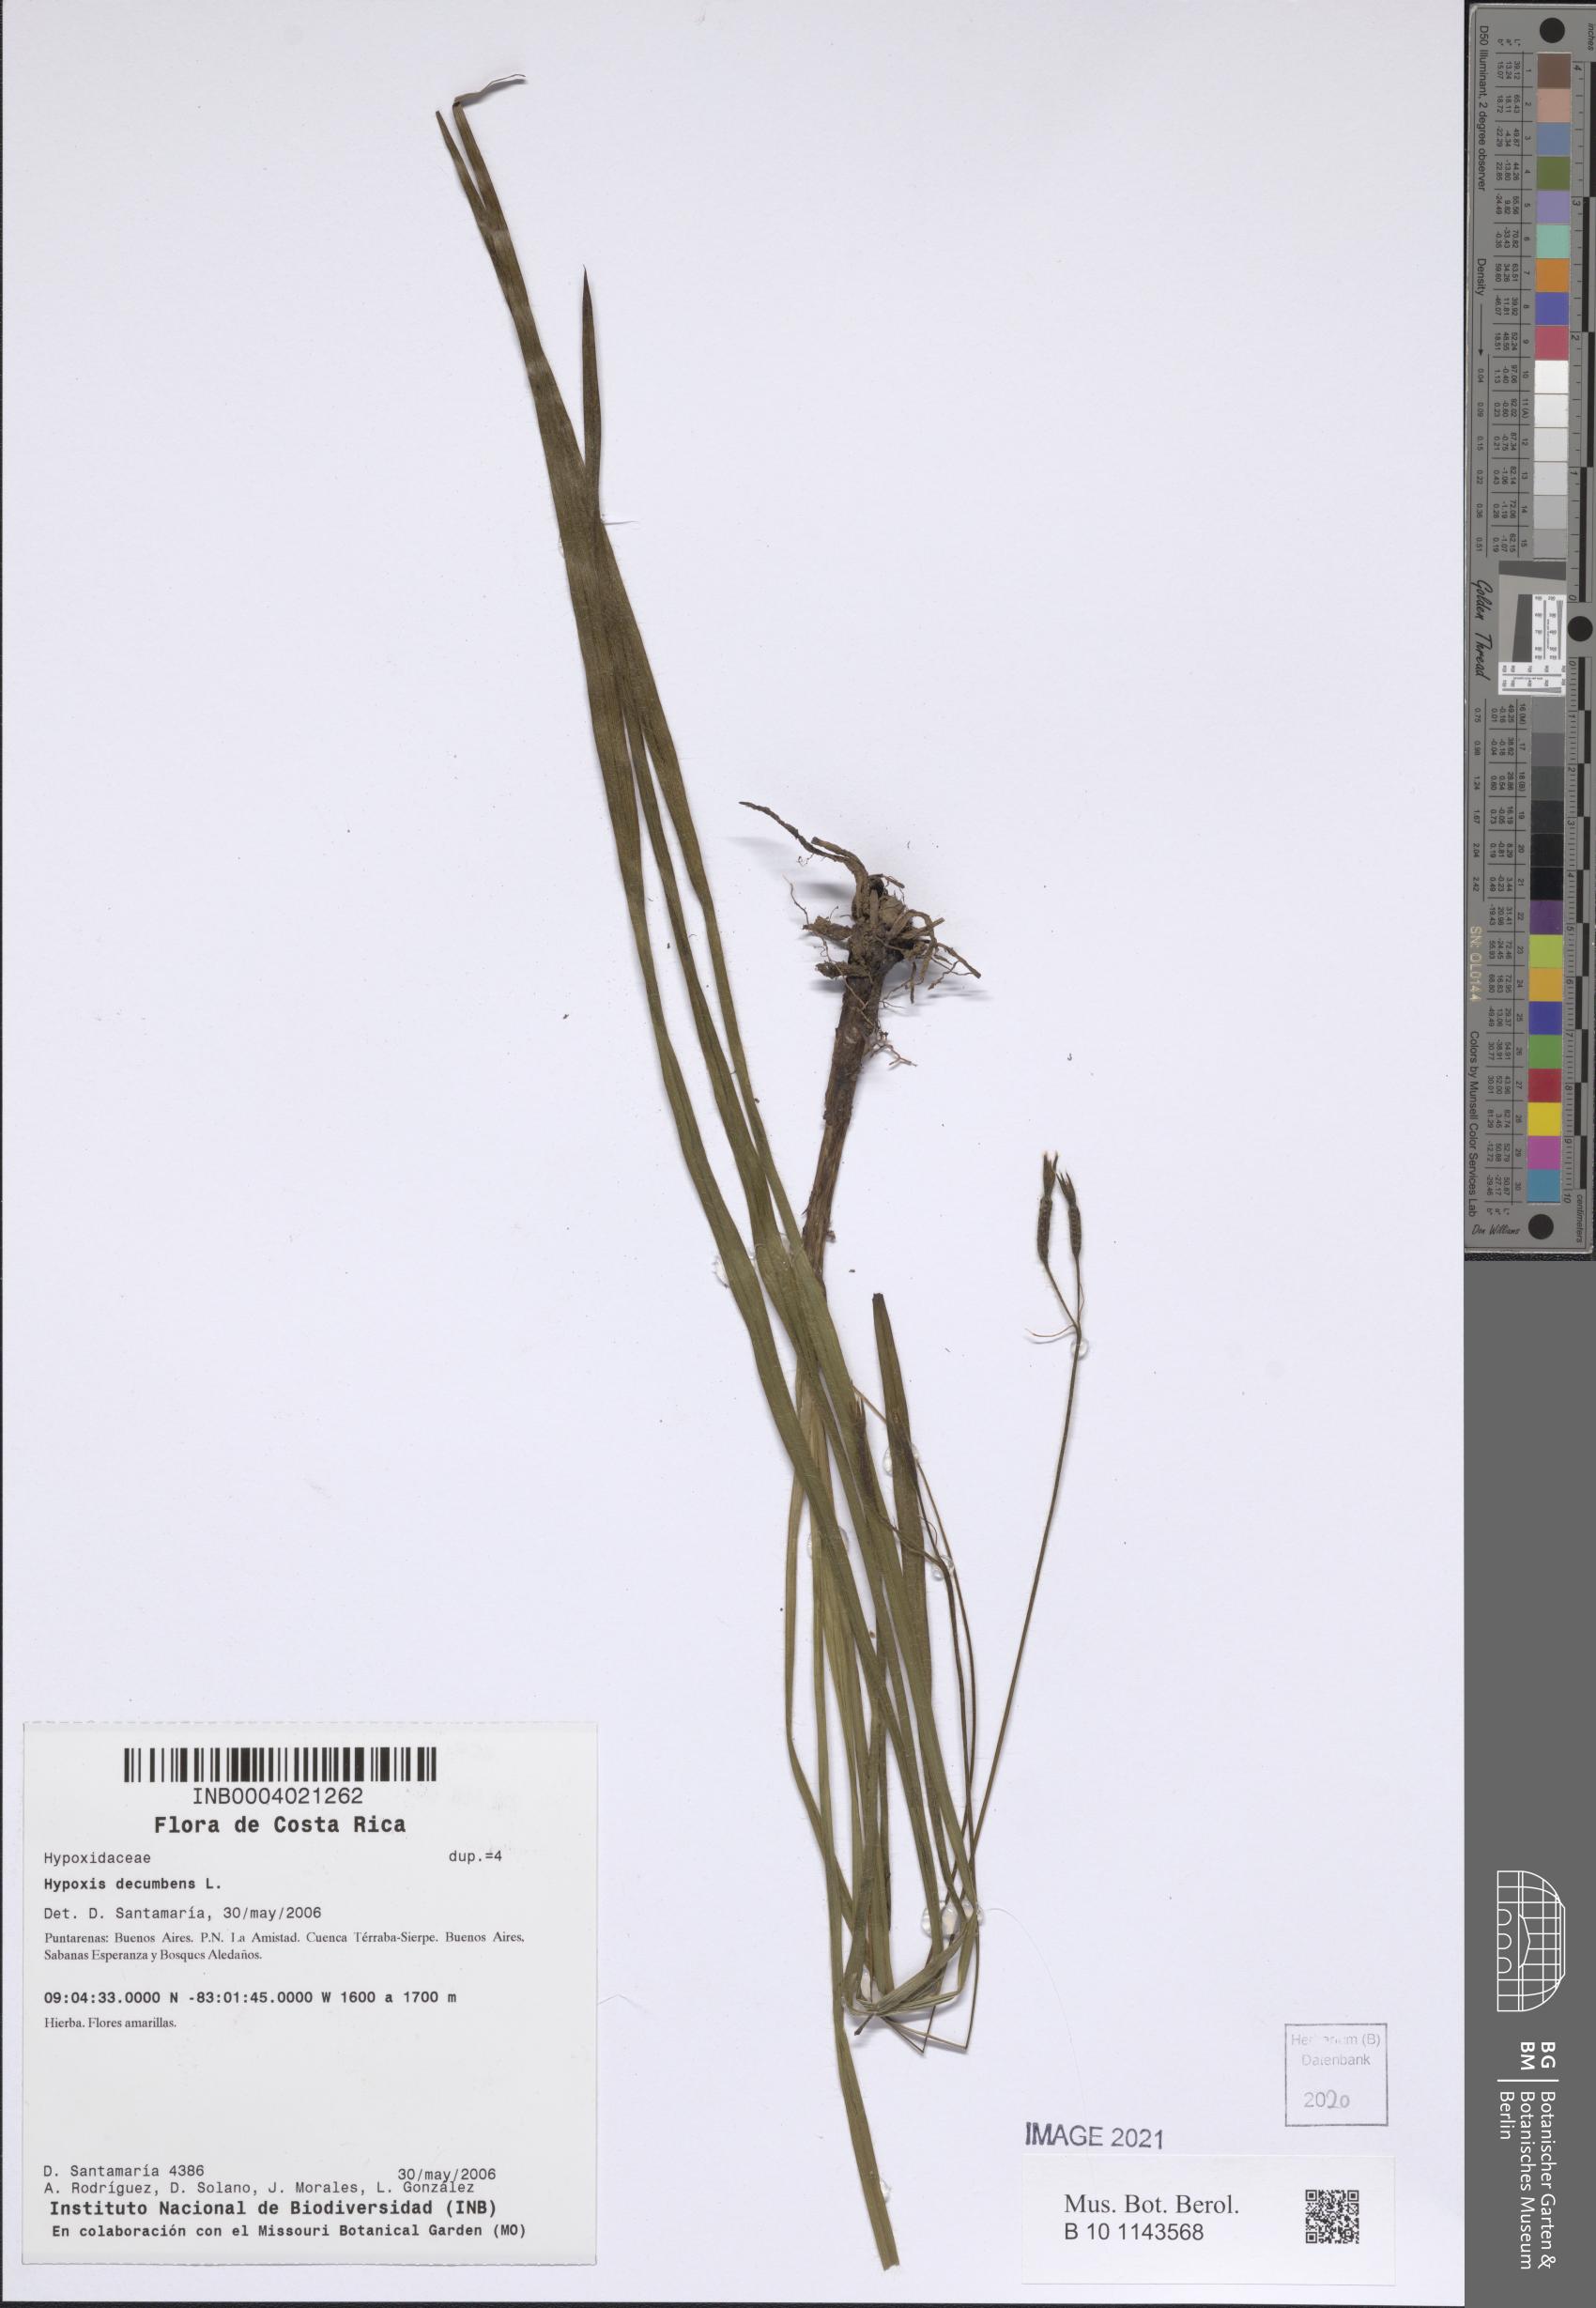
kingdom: Plantae
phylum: Tracheophyta
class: Liliopsida
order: Asparagales
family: Hypoxidaceae
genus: Hypoxis
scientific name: Hypoxis decumbens
